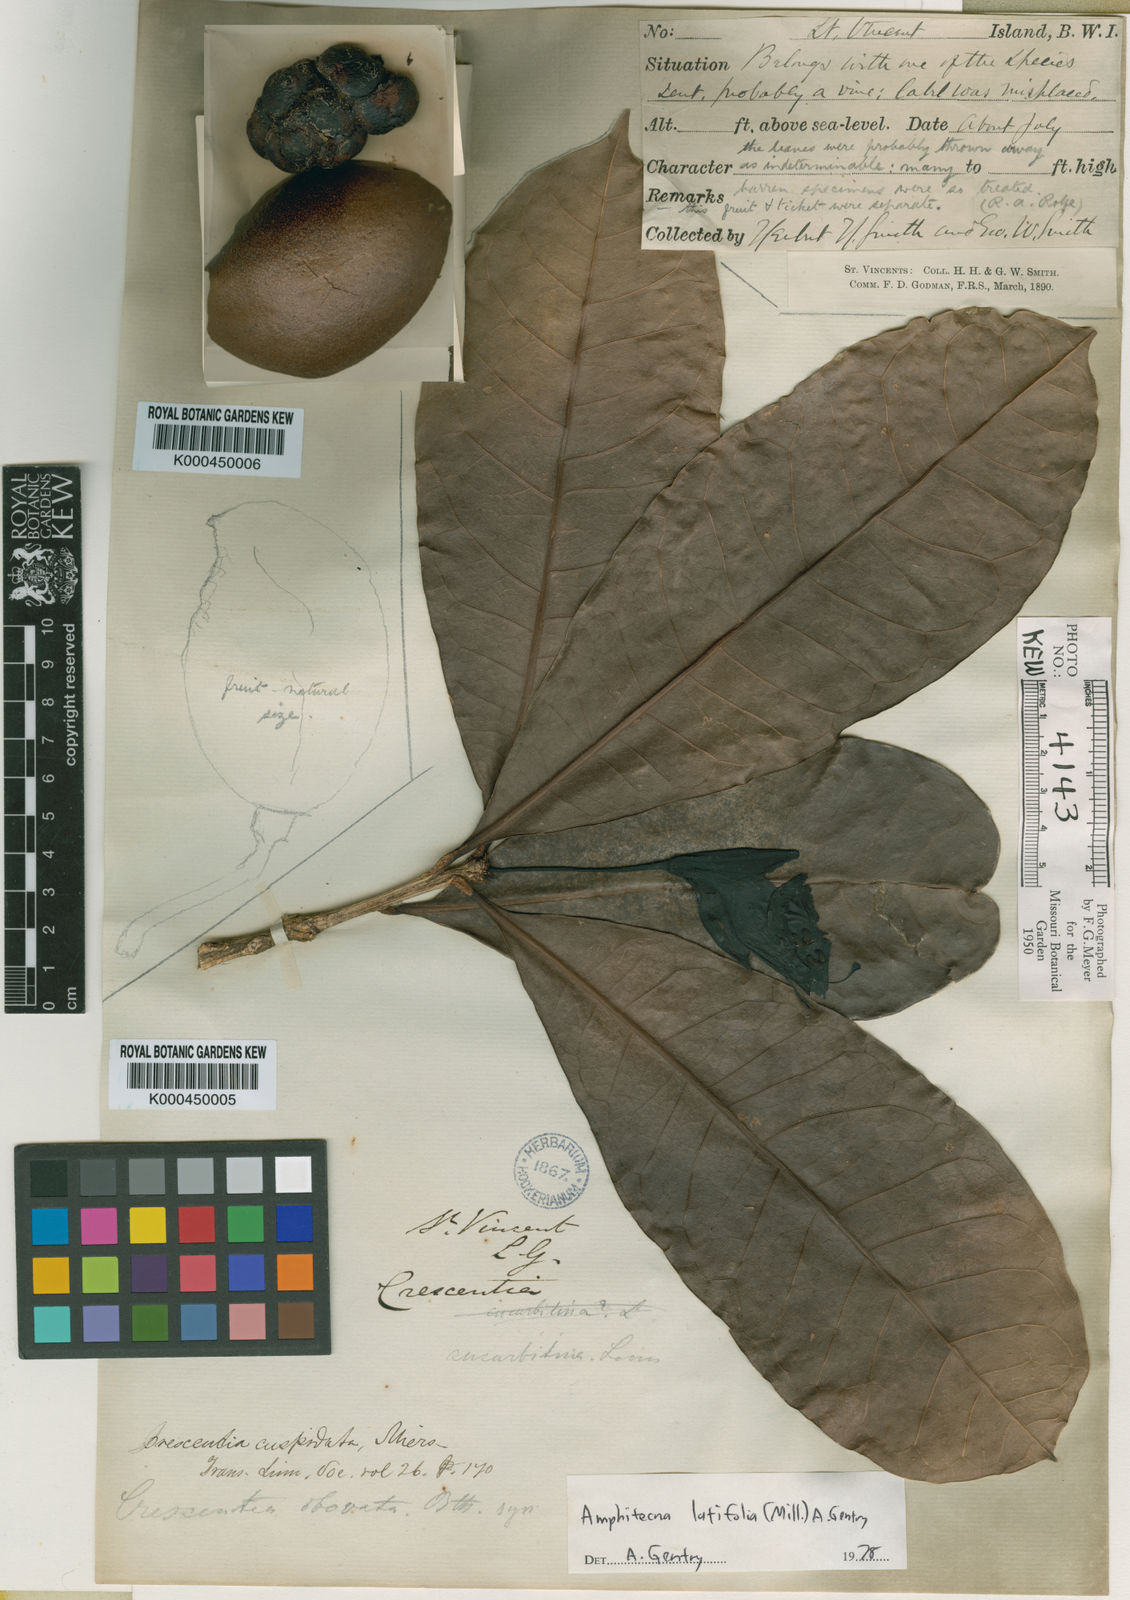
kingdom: Plantae
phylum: Tracheophyta
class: Magnoliopsida
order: Lamiales
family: Bignoniaceae
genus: Amphitecna
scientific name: Amphitecna latifolia
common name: Black-calabash
